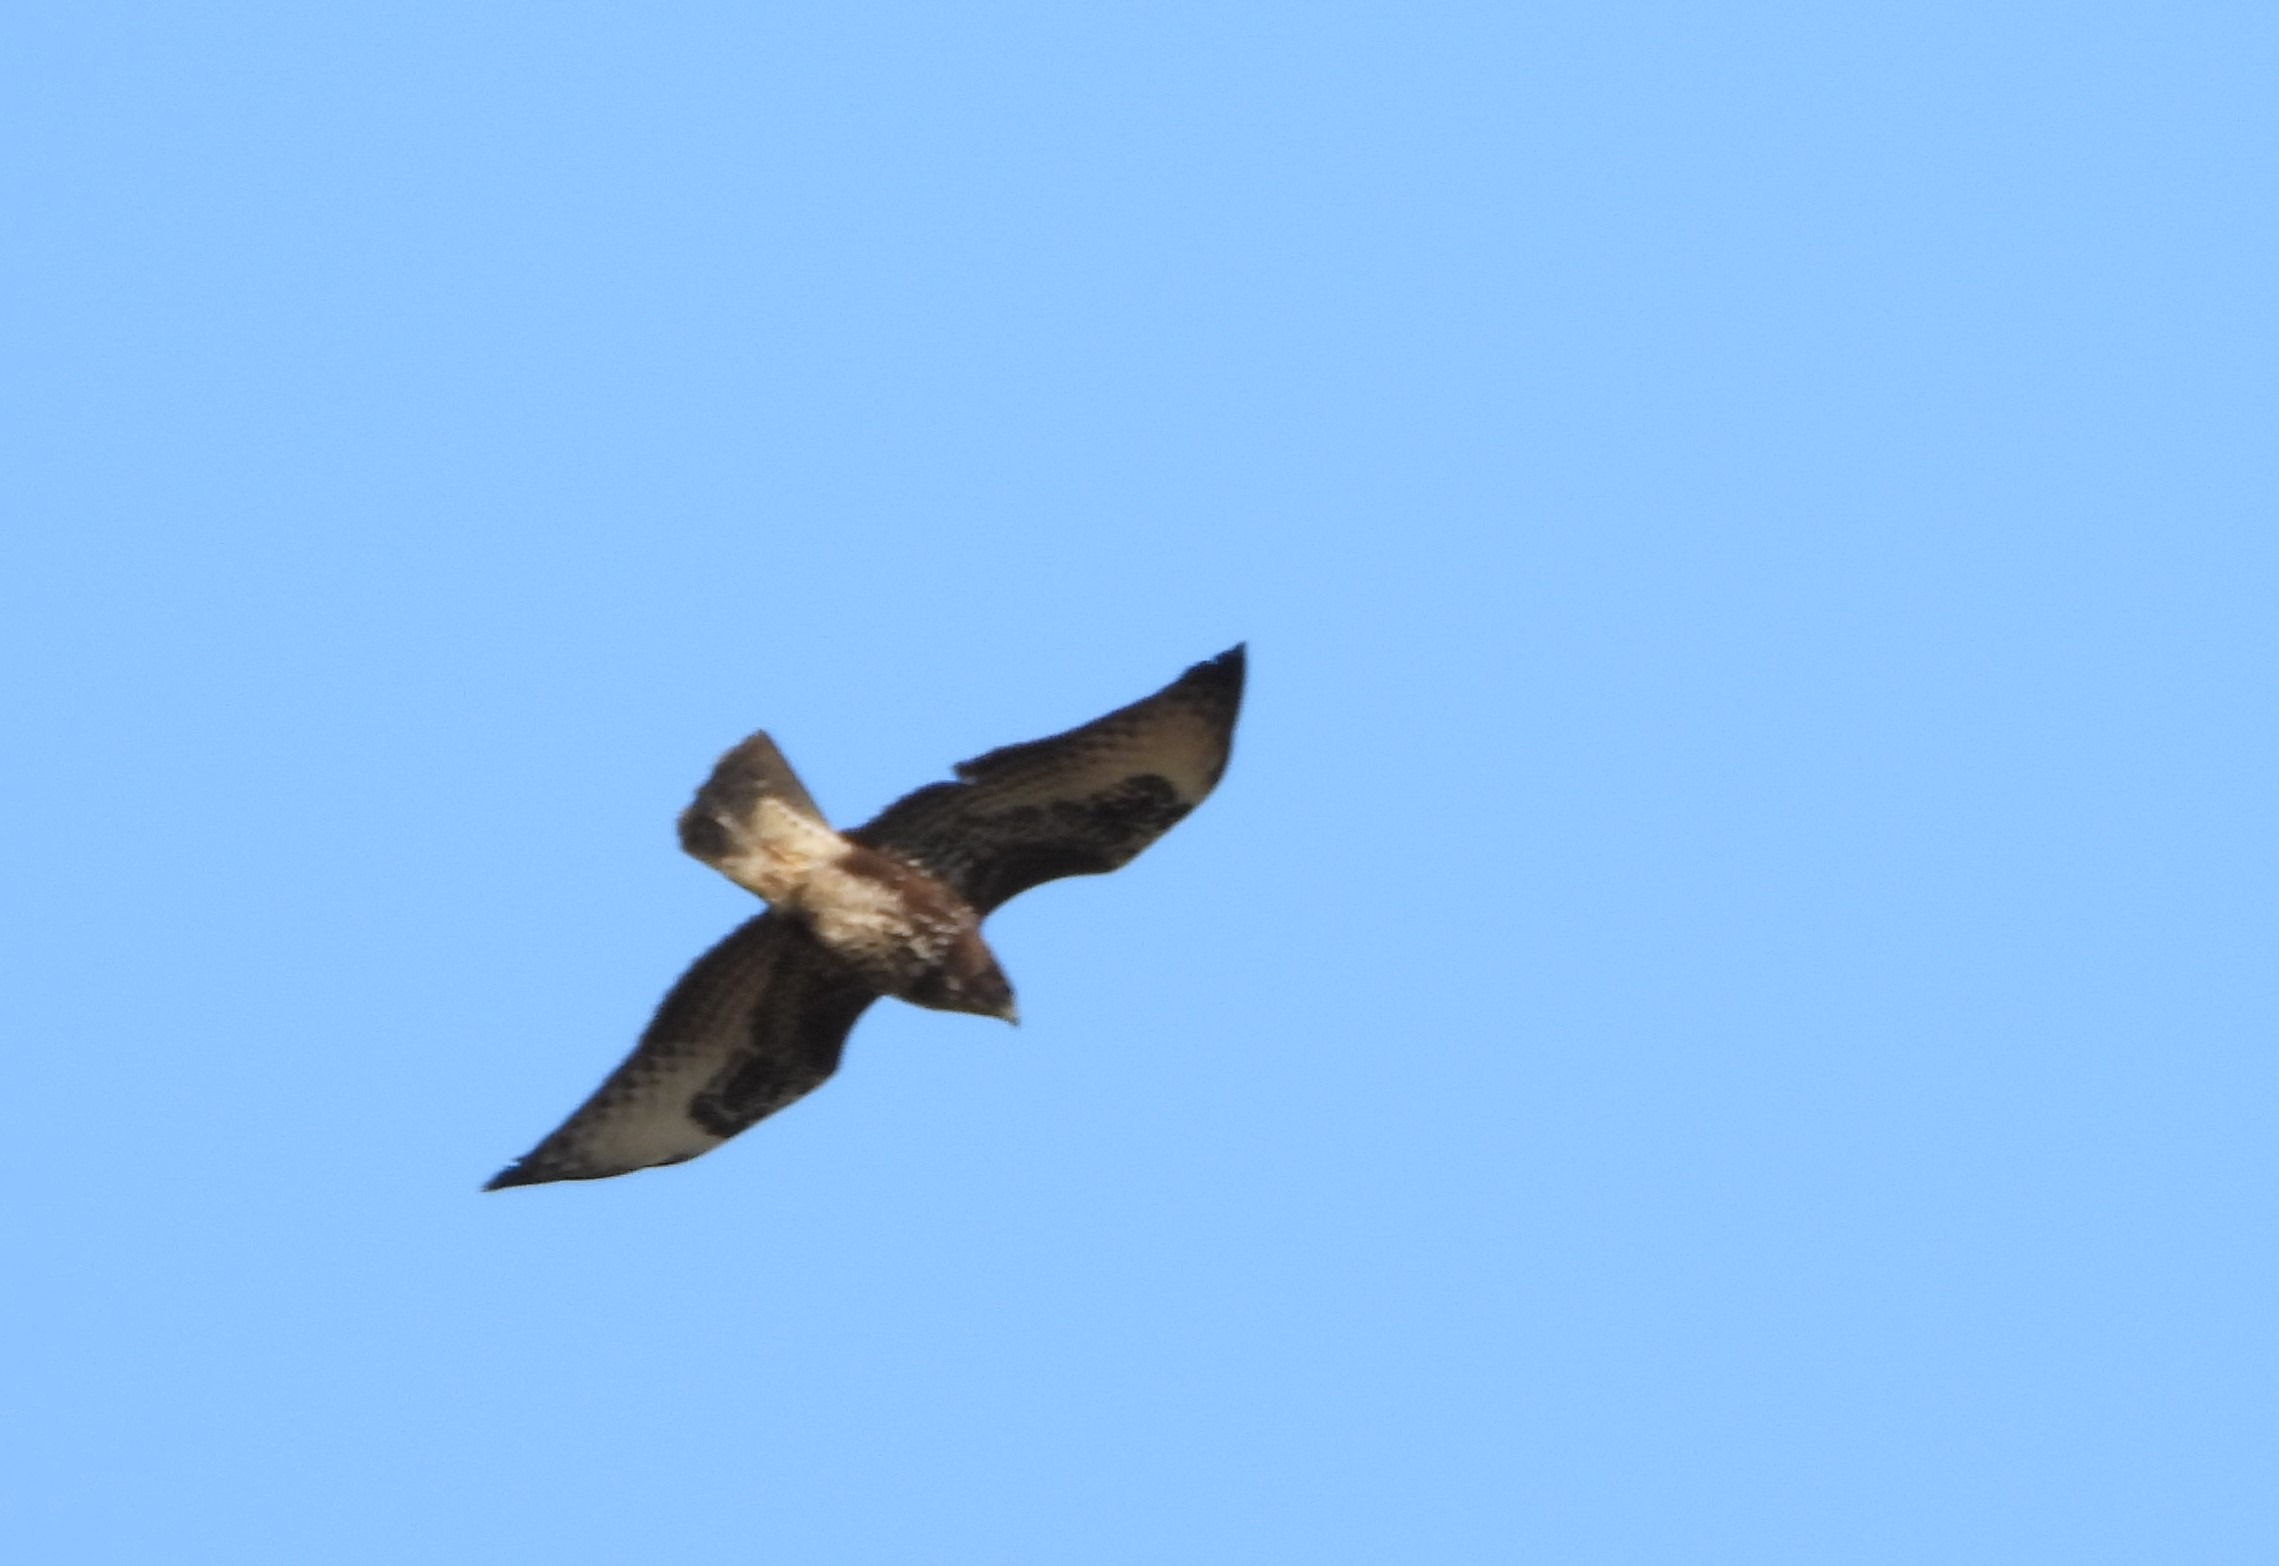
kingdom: Animalia
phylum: Chordata
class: Aves
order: Accipitriformes
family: Accipitridae
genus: Buteo
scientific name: Buteo buteo
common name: Musvåge
